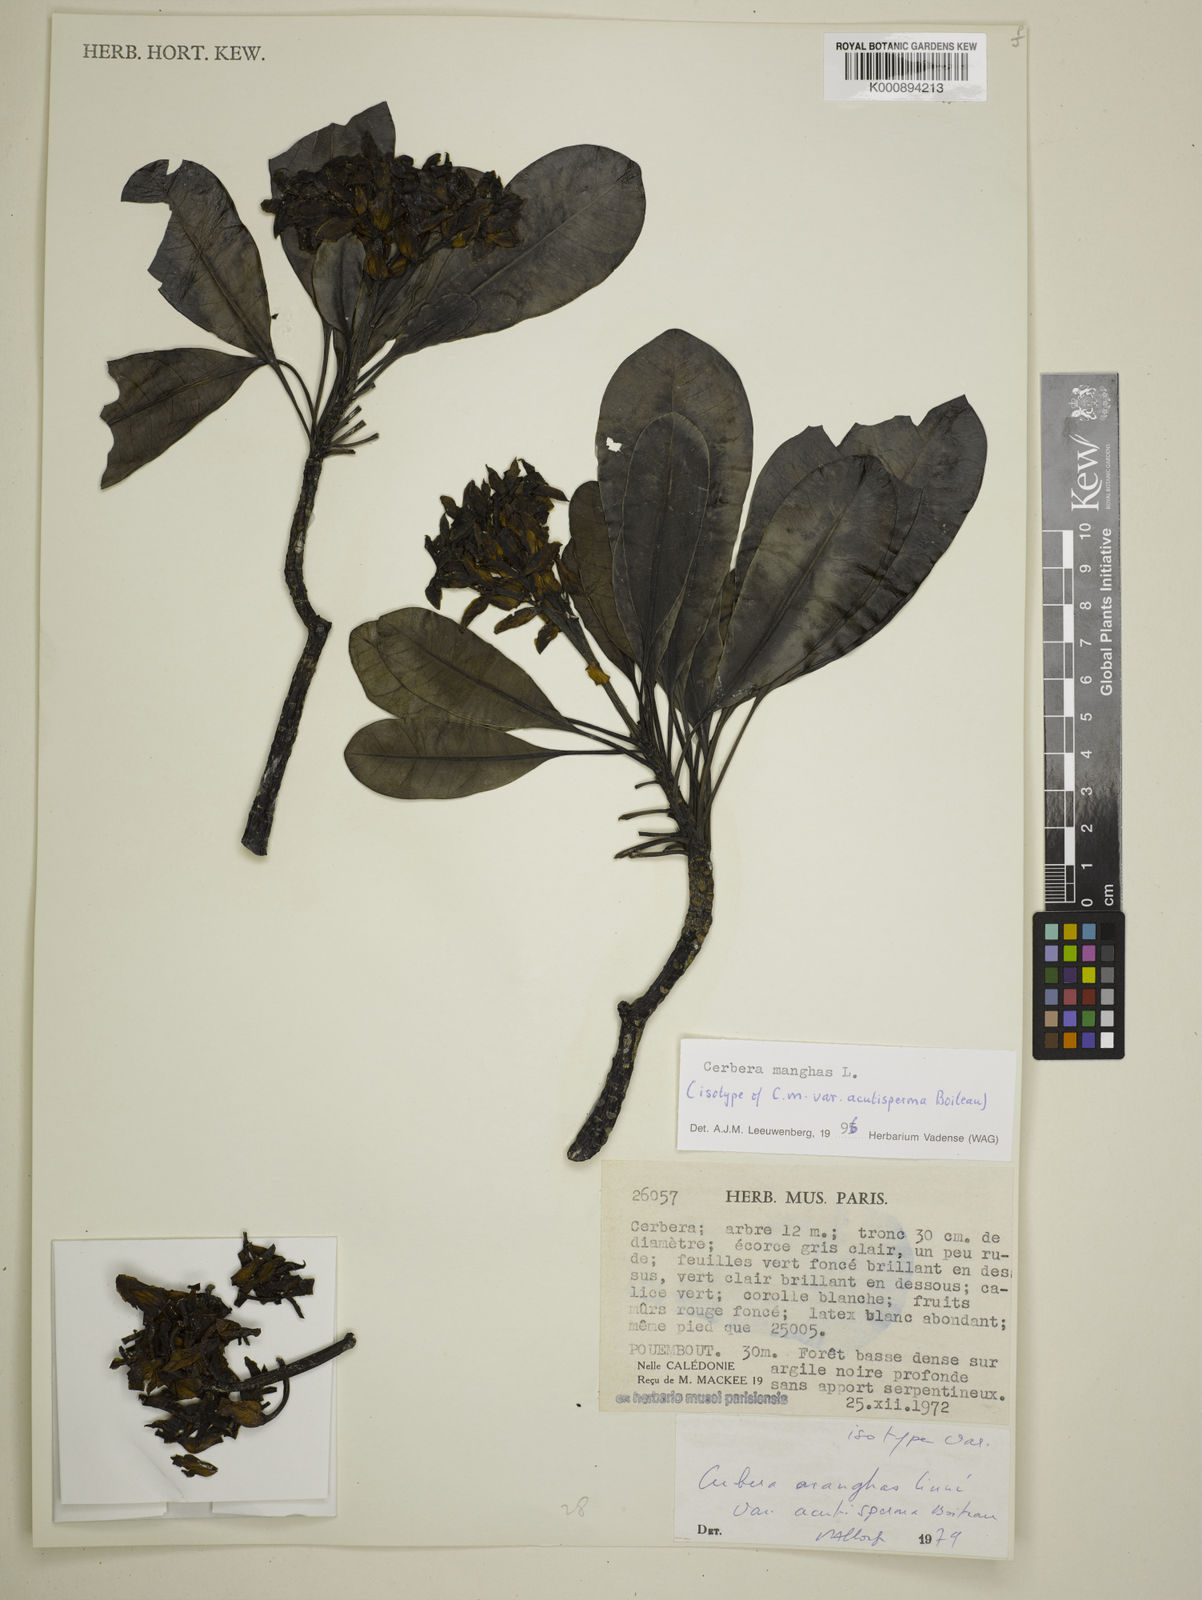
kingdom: Plantae
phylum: Tracheophyta
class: Magnoliopsida
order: Gentianales
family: Apocynaceae
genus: Cerbera
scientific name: Cerbera manghas
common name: Reva
